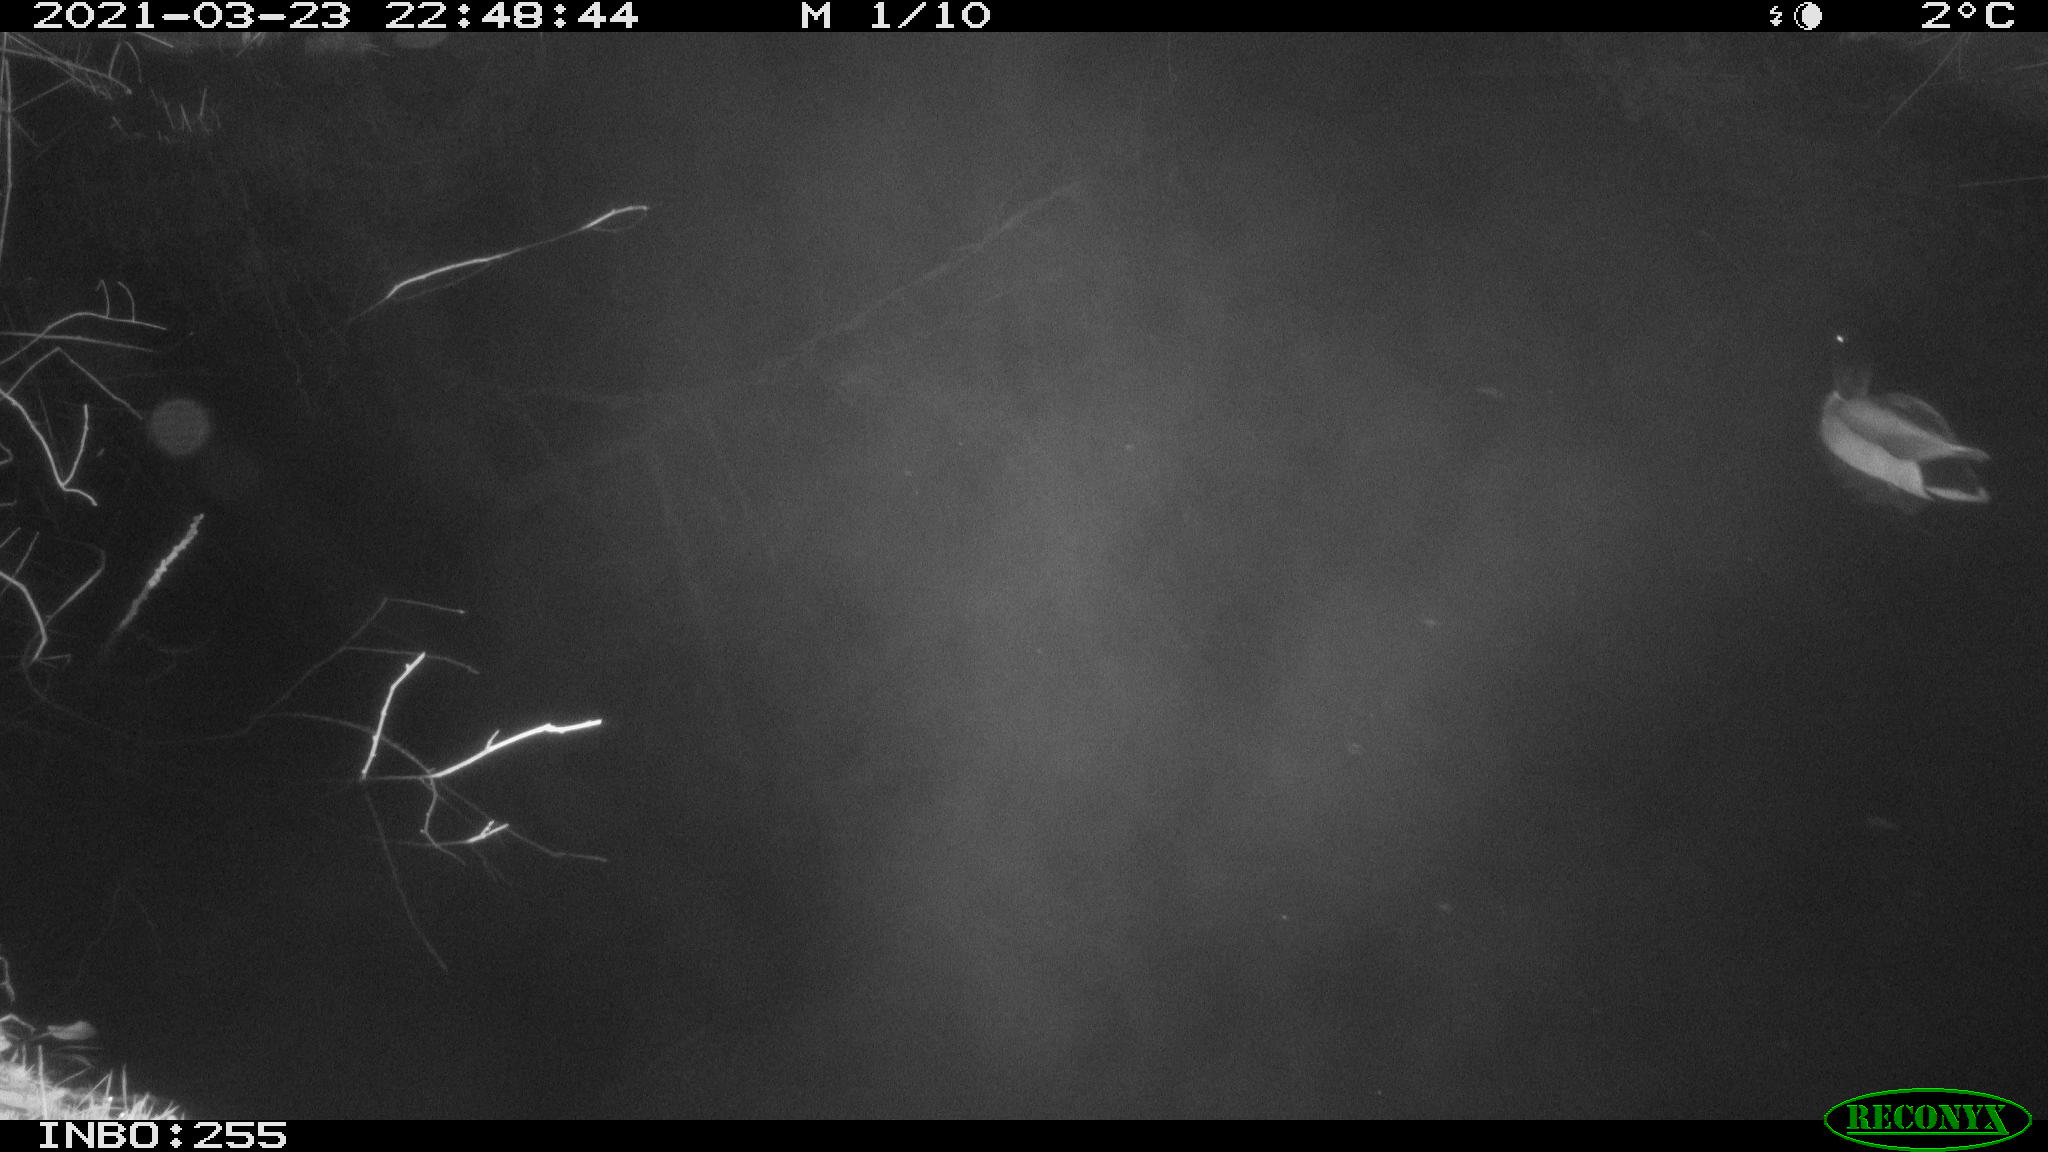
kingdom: Animalia
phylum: Chordata
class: Aves
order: Anseriformes
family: Anatidae
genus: Anas
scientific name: Anas platyrhynchos
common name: Mallard
